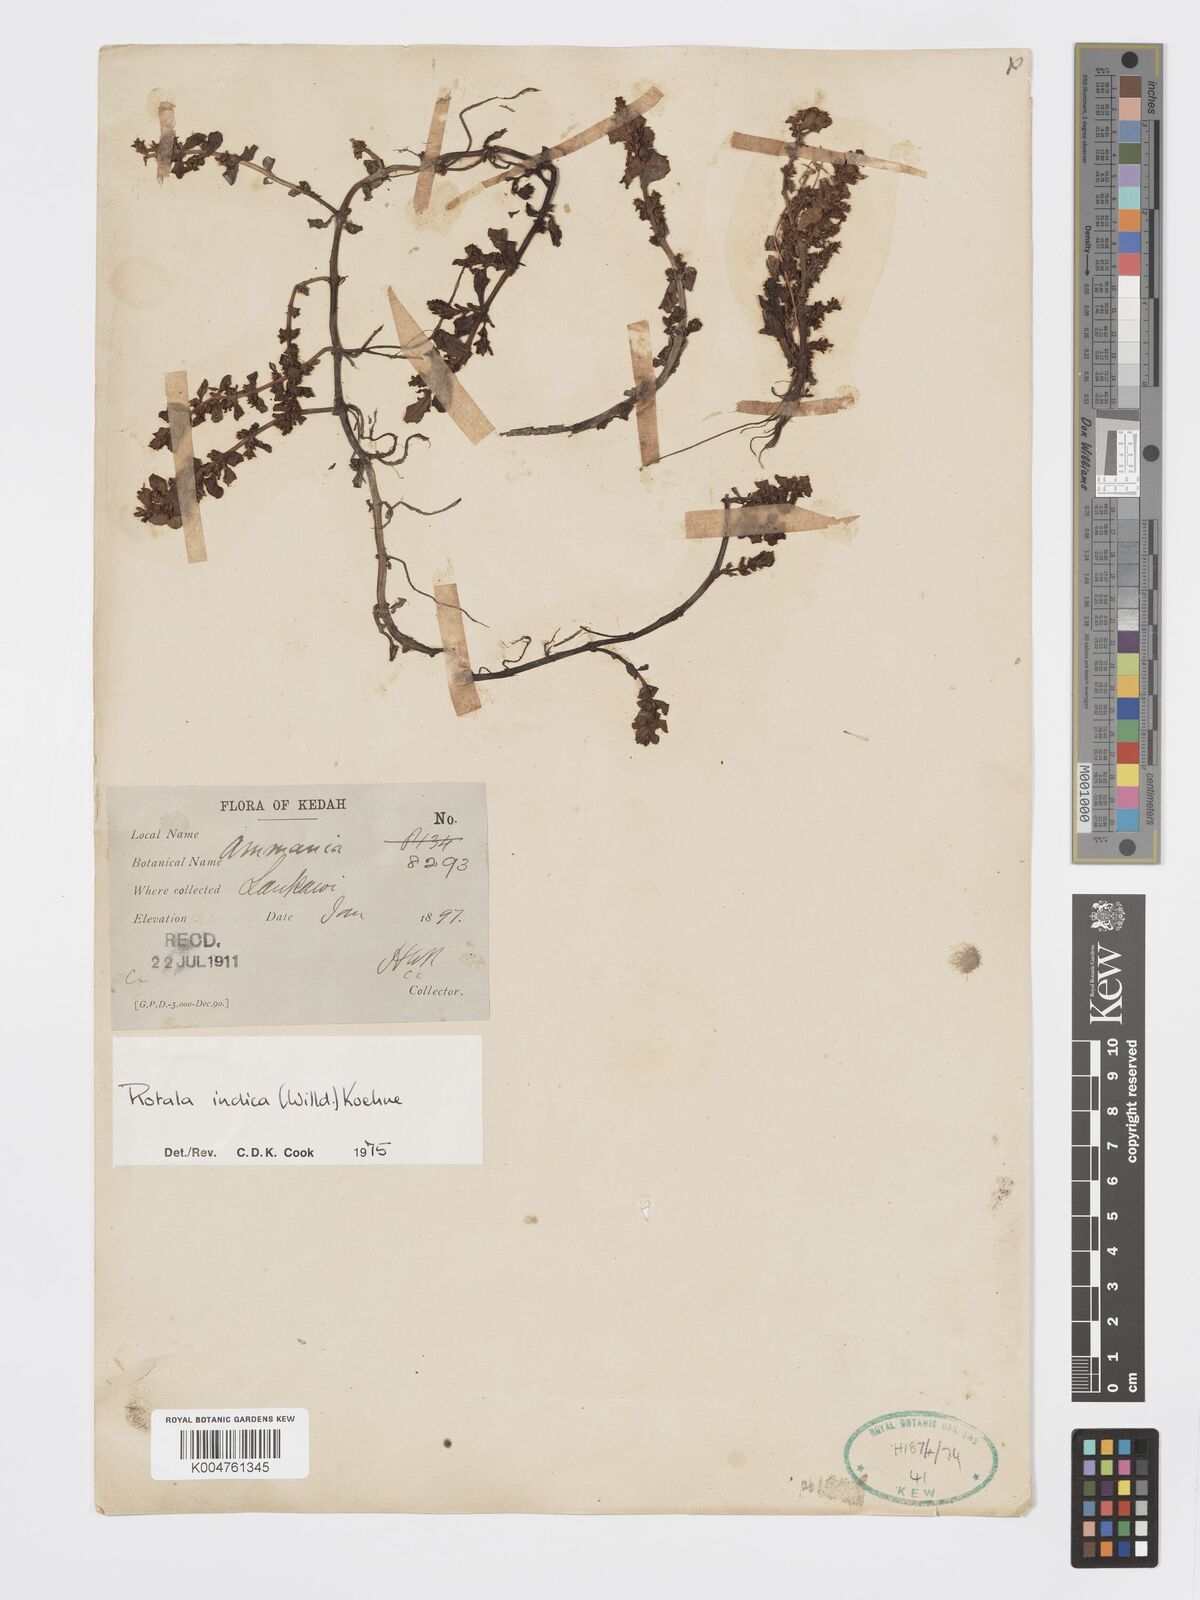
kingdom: Plantae
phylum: Tracheophyta
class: Magnoliopsida
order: Myrtales
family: Lythraceae
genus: Rotala
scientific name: Rotala indica
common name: Indian toothcup
